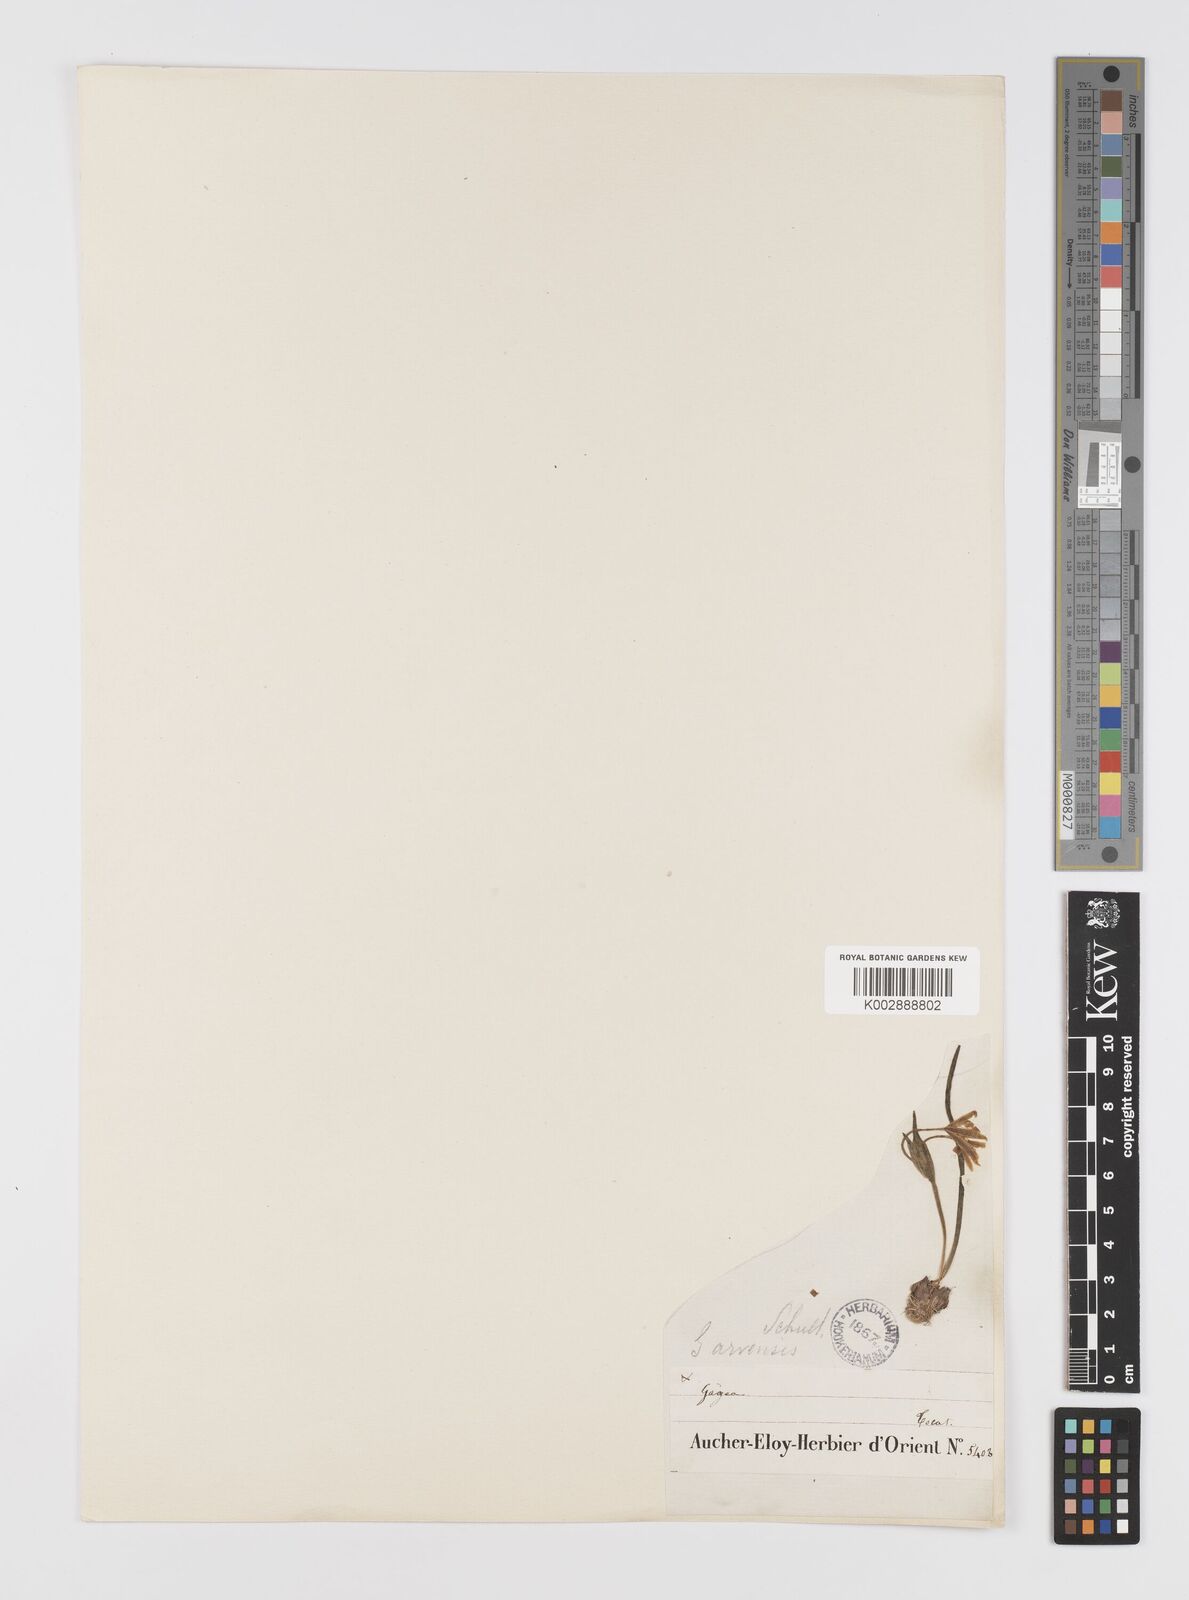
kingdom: Plantae
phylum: Tracheophyta
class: Liliopsida
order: Liliales
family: Liliaceae
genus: Gagea
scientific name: Gagea
